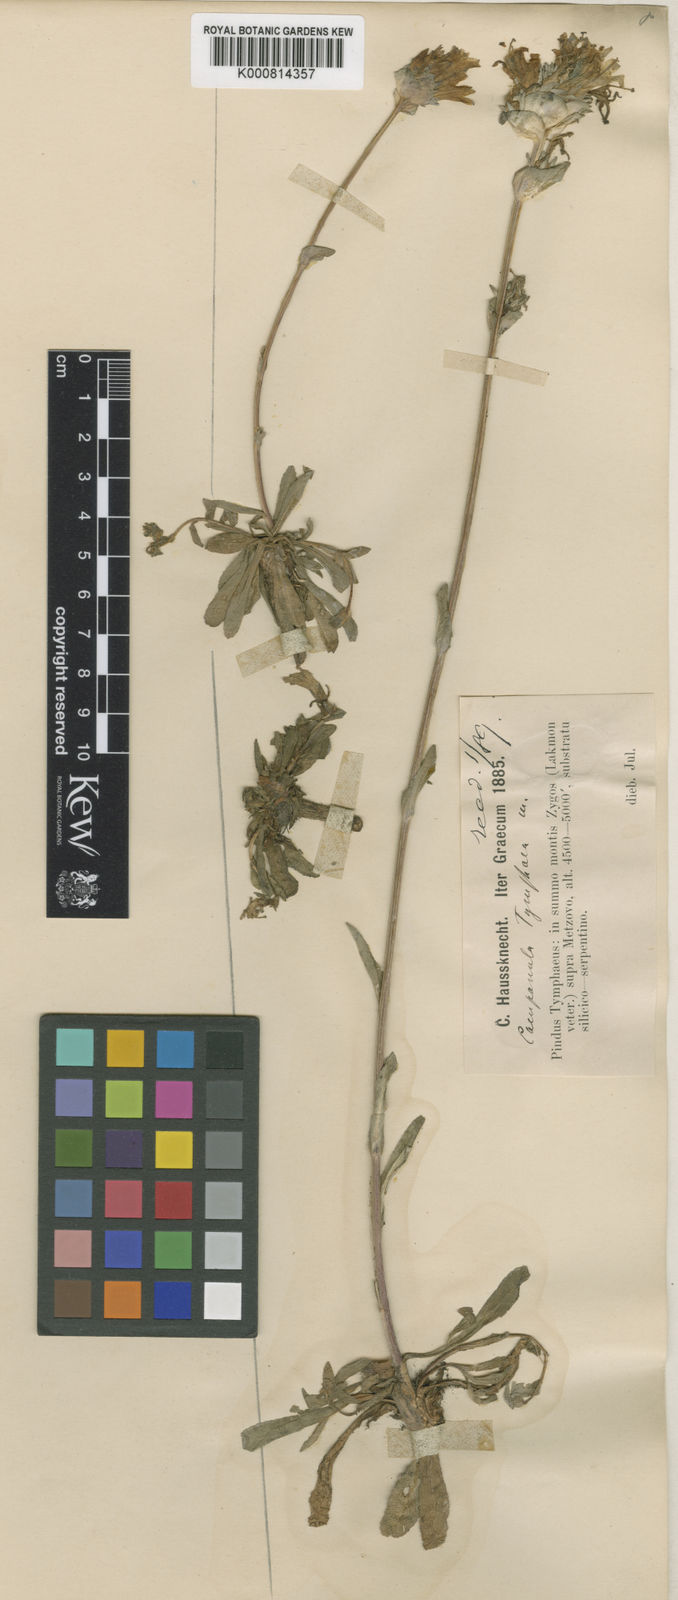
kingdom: Plantae
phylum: Tracheophyta
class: Magnoliopsida
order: Asterales
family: Campanulaceae
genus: Campanula
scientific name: Campanula tymphaea
